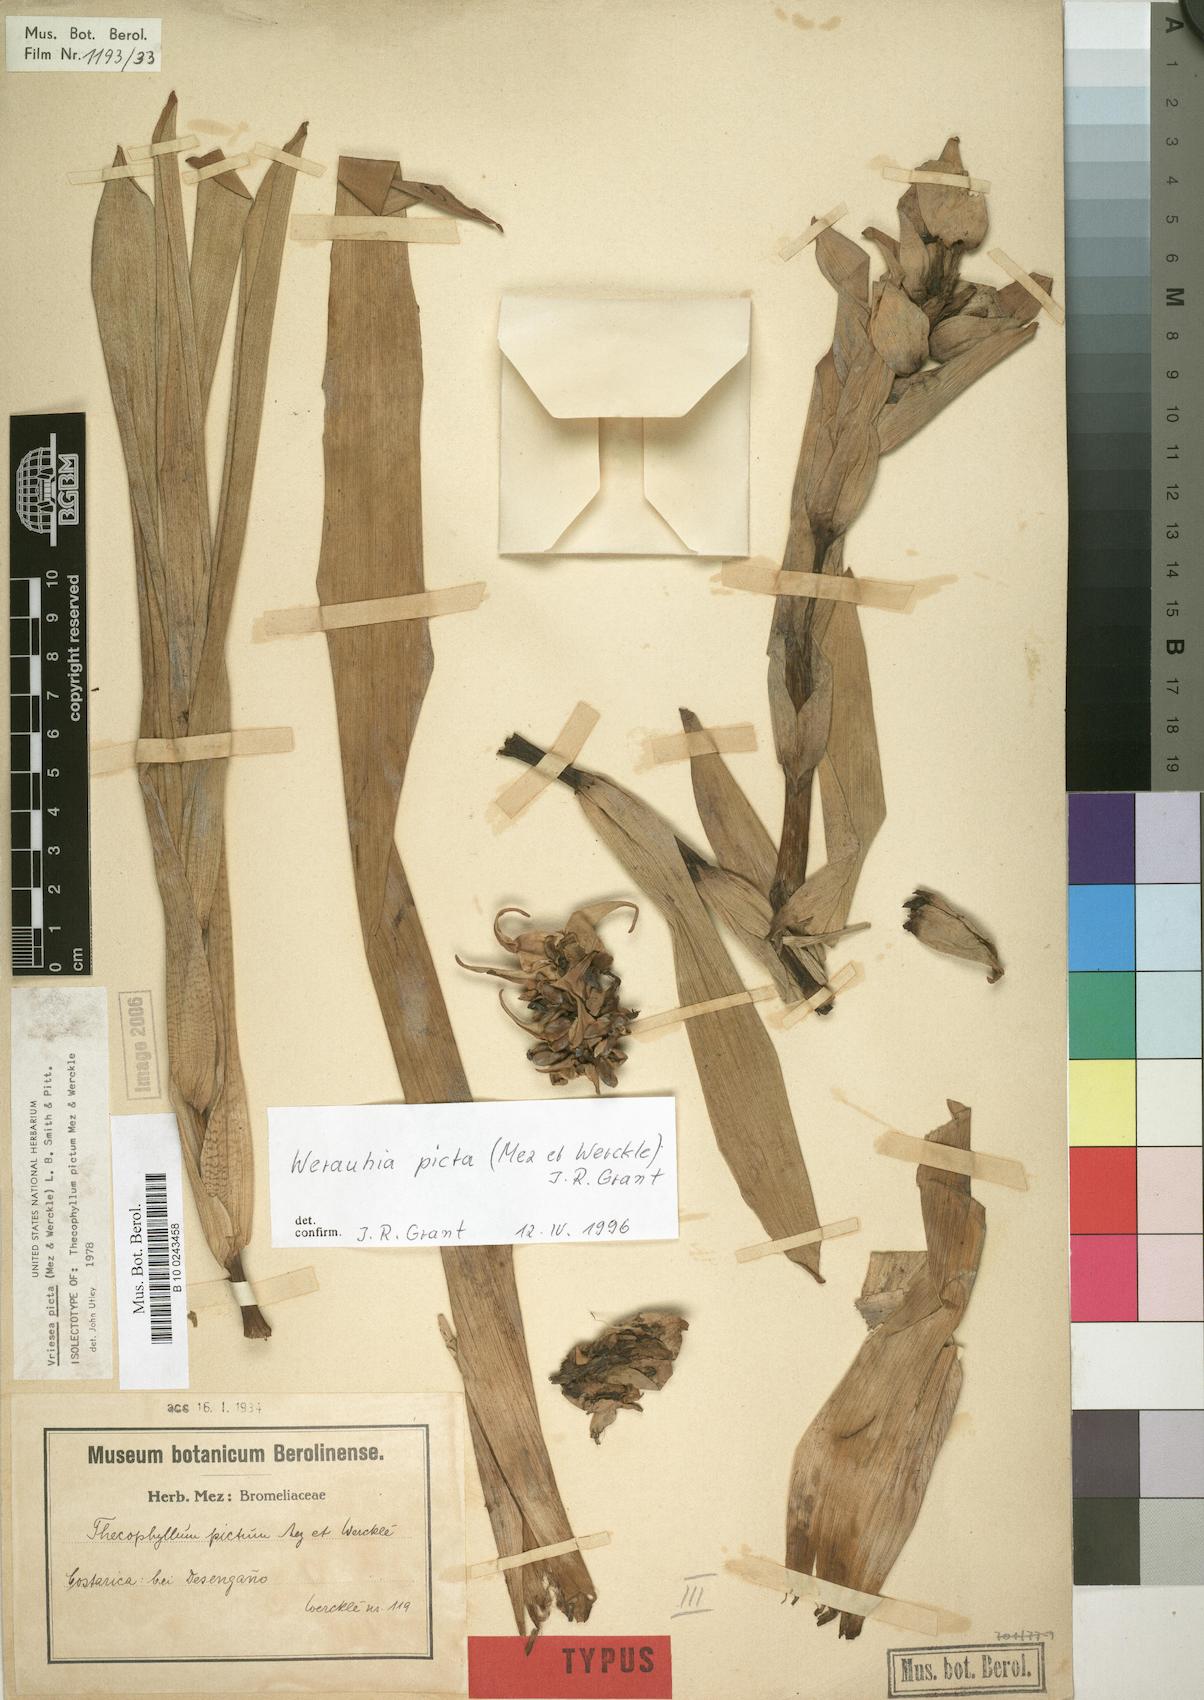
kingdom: Plantae
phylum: Tracheophyta
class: Liliopsida
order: Poales
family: Bromeliaceae
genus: Werauhia
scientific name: Werauhia picta
